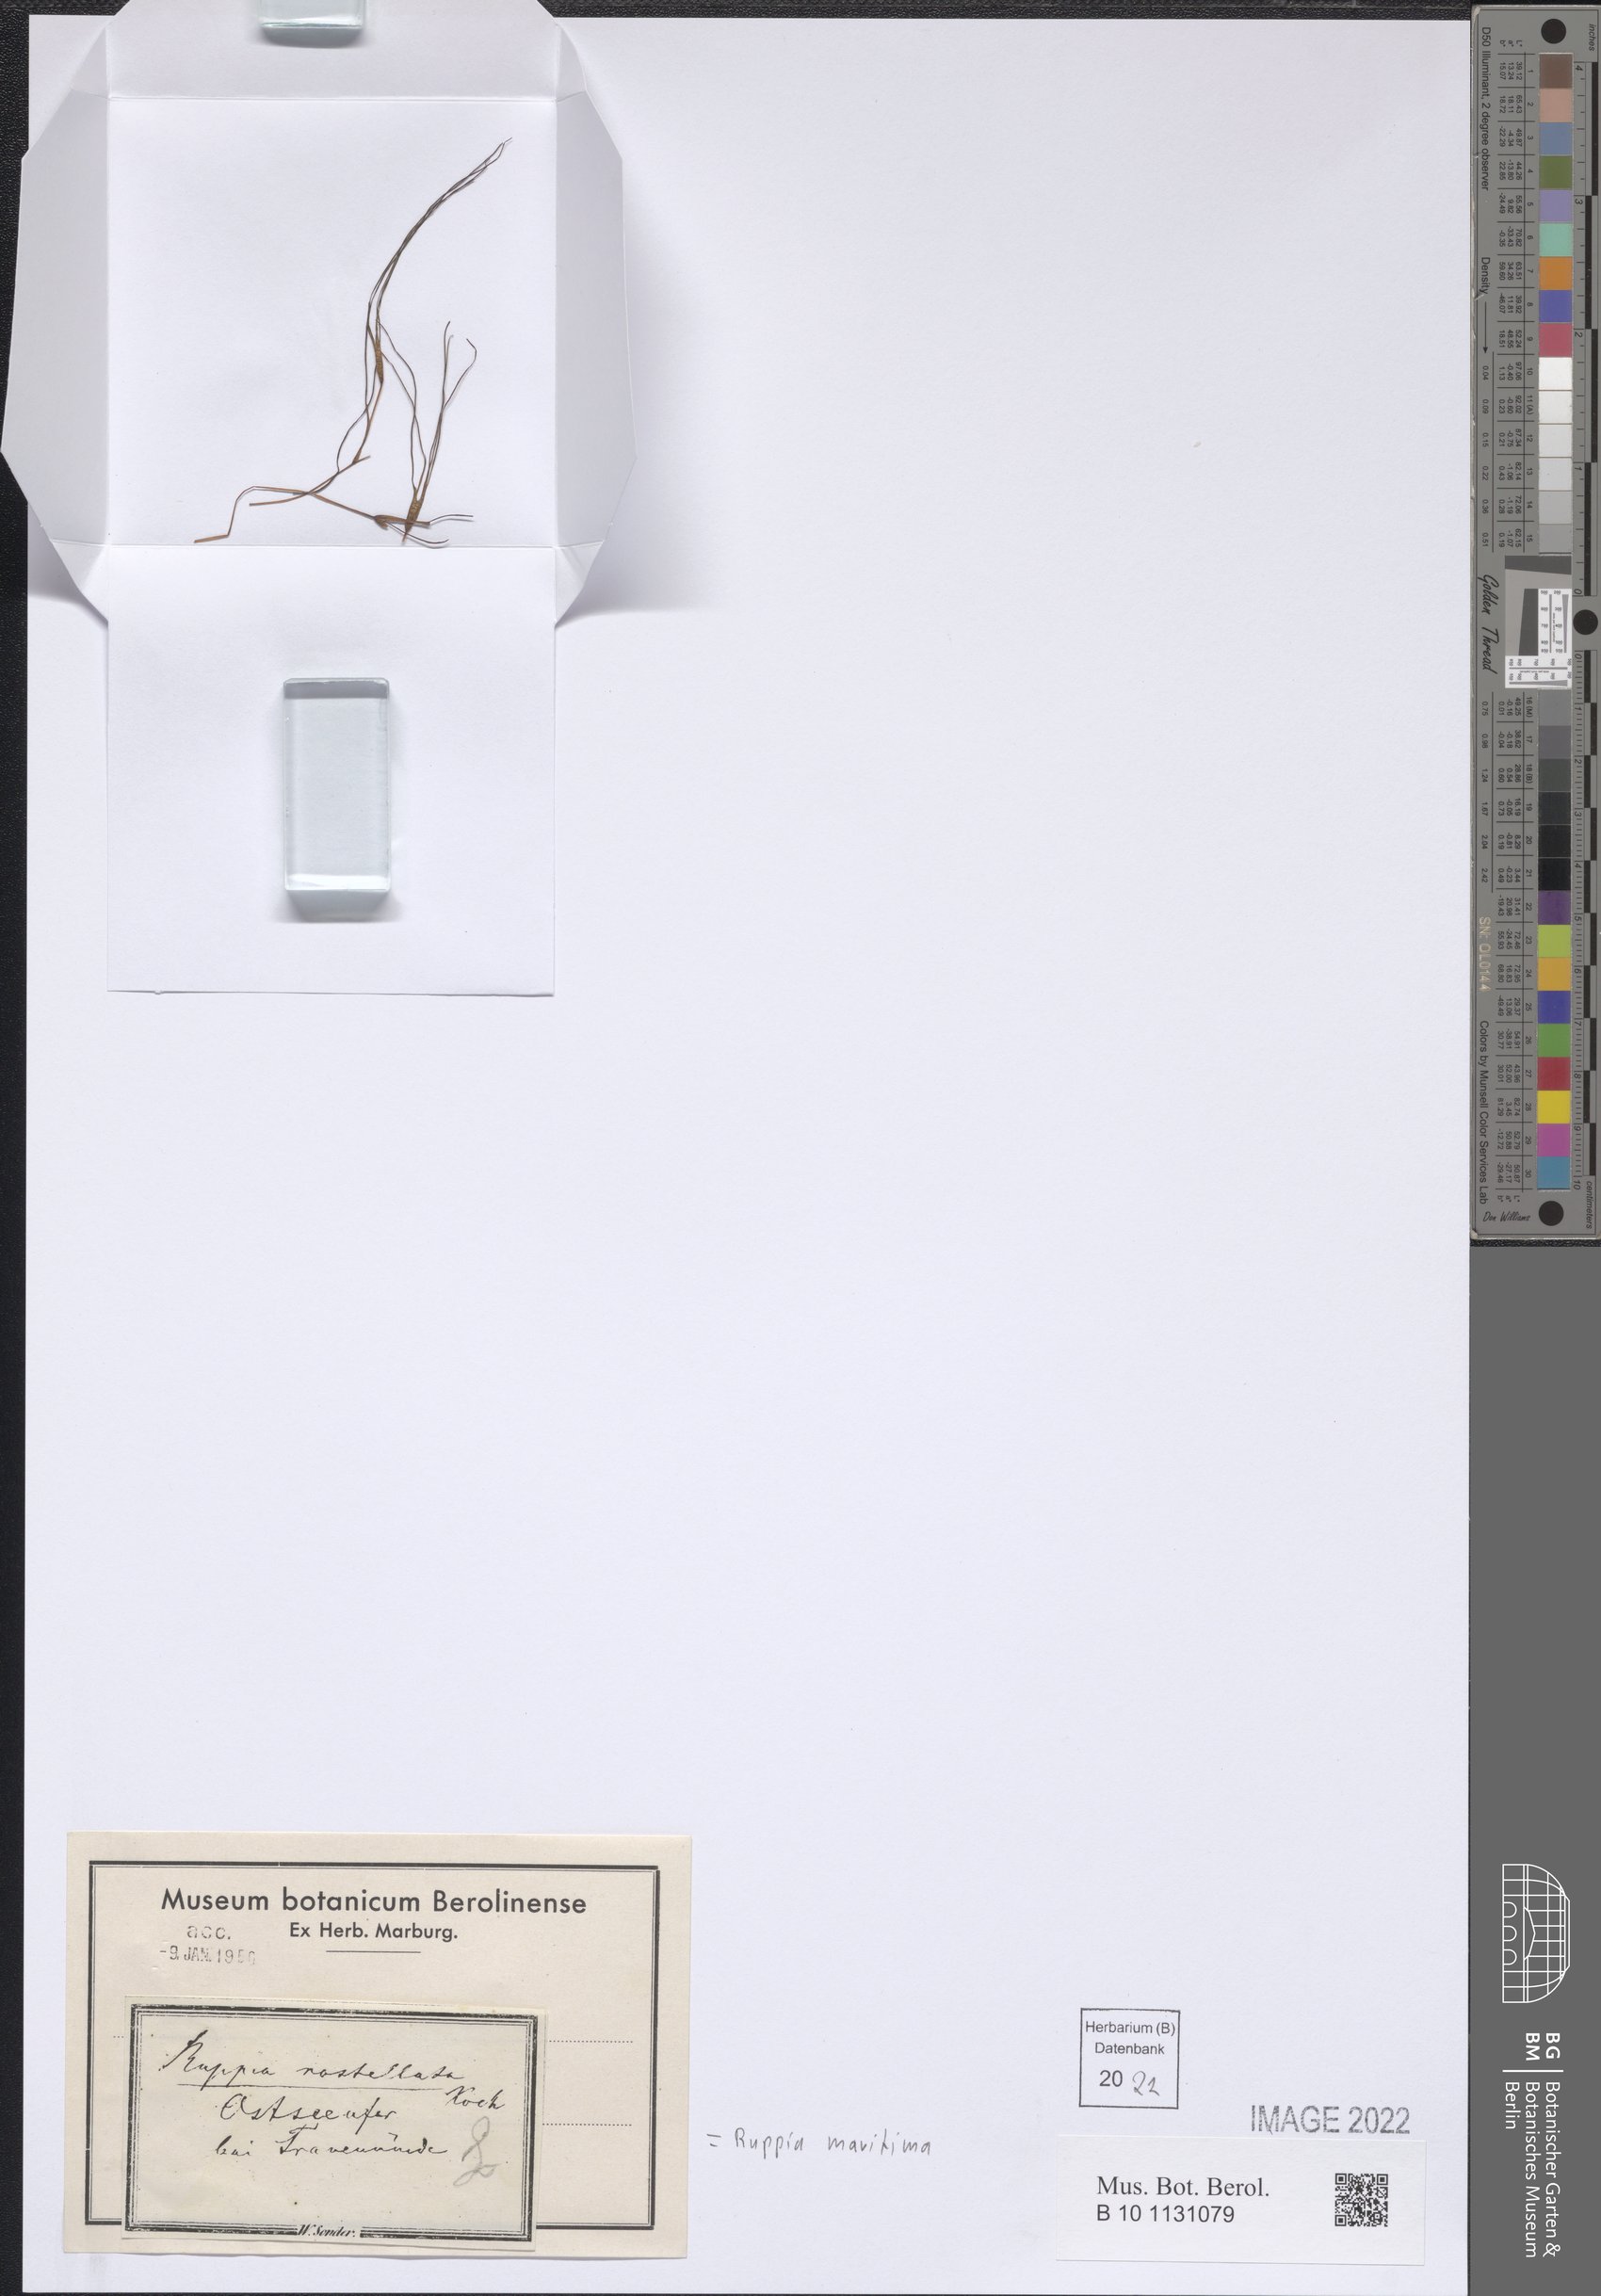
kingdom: Plantae
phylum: Tracheophyta
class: Liliopsida
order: Alismatales
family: Ruppiaceae
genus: Ruppia
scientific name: Ruppia maritima
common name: Beaked tasselweed
